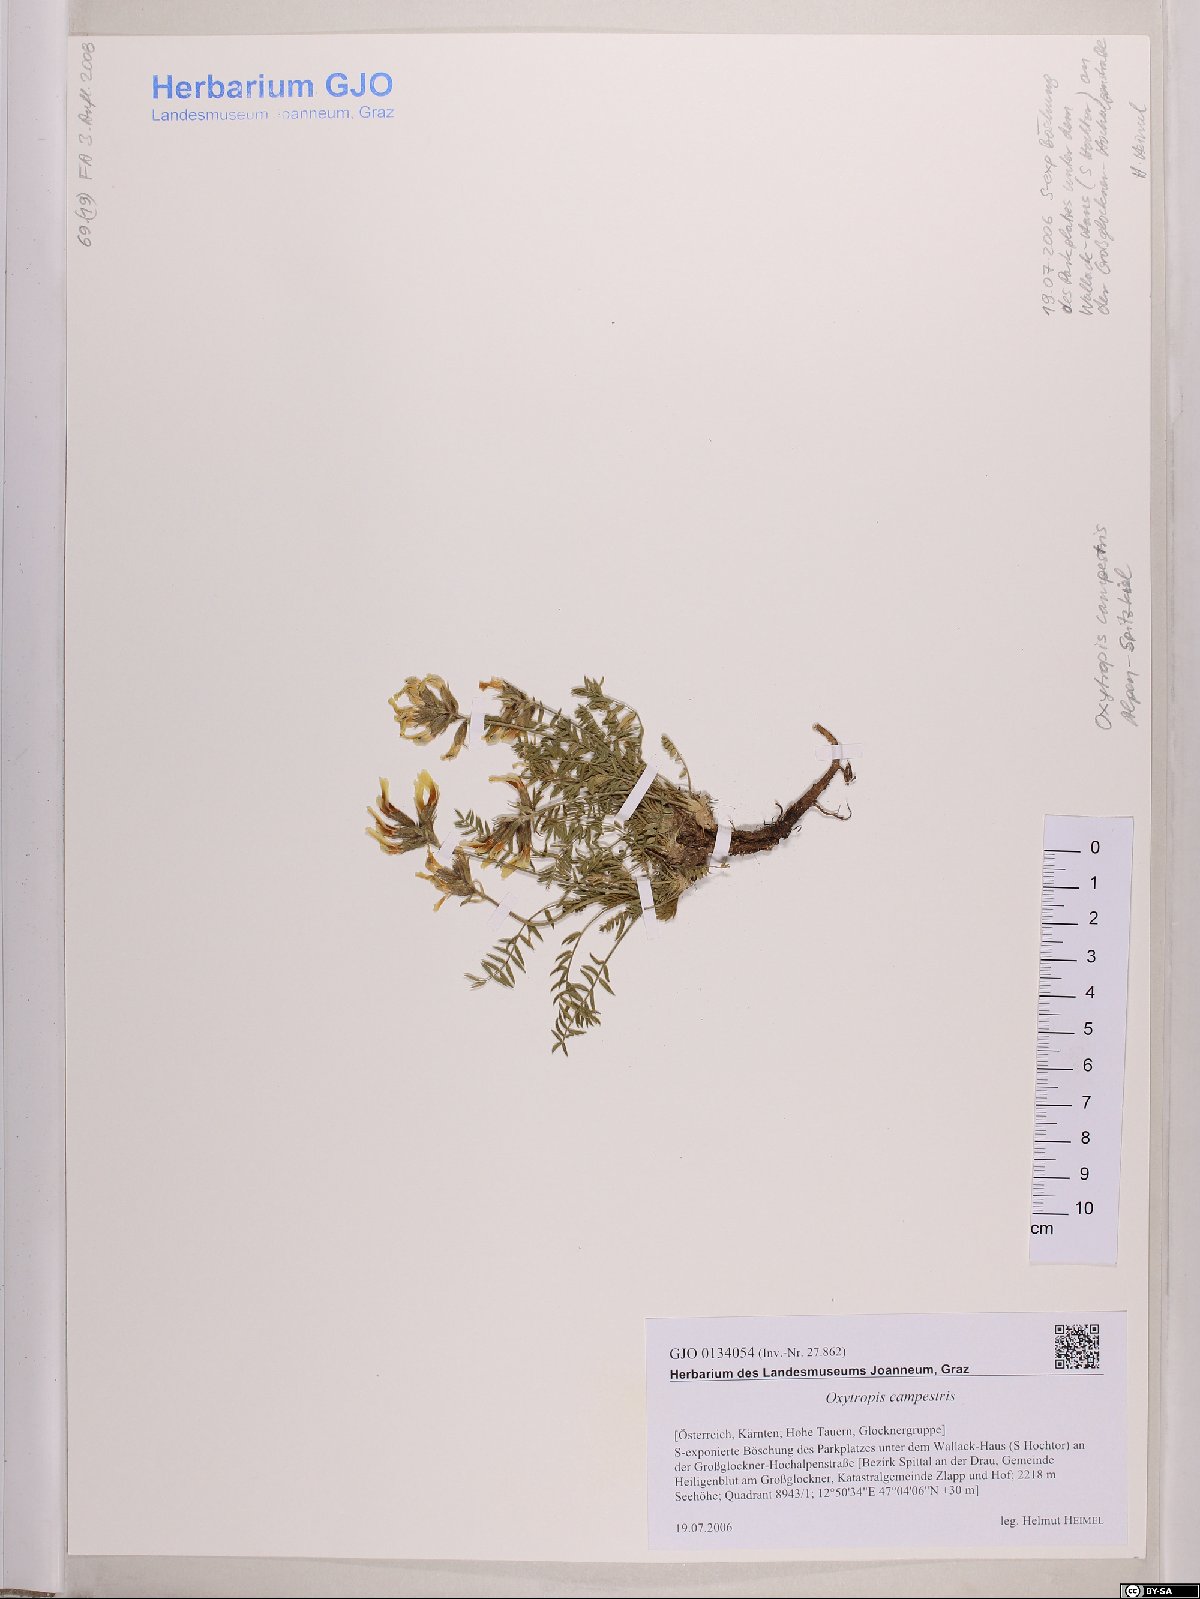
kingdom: Plantae
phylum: Tracheophyta
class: Magnoliopsida
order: Fabales
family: Fabaceae
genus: Oxytropis
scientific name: Oxytropis campestris
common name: Field locoweed
